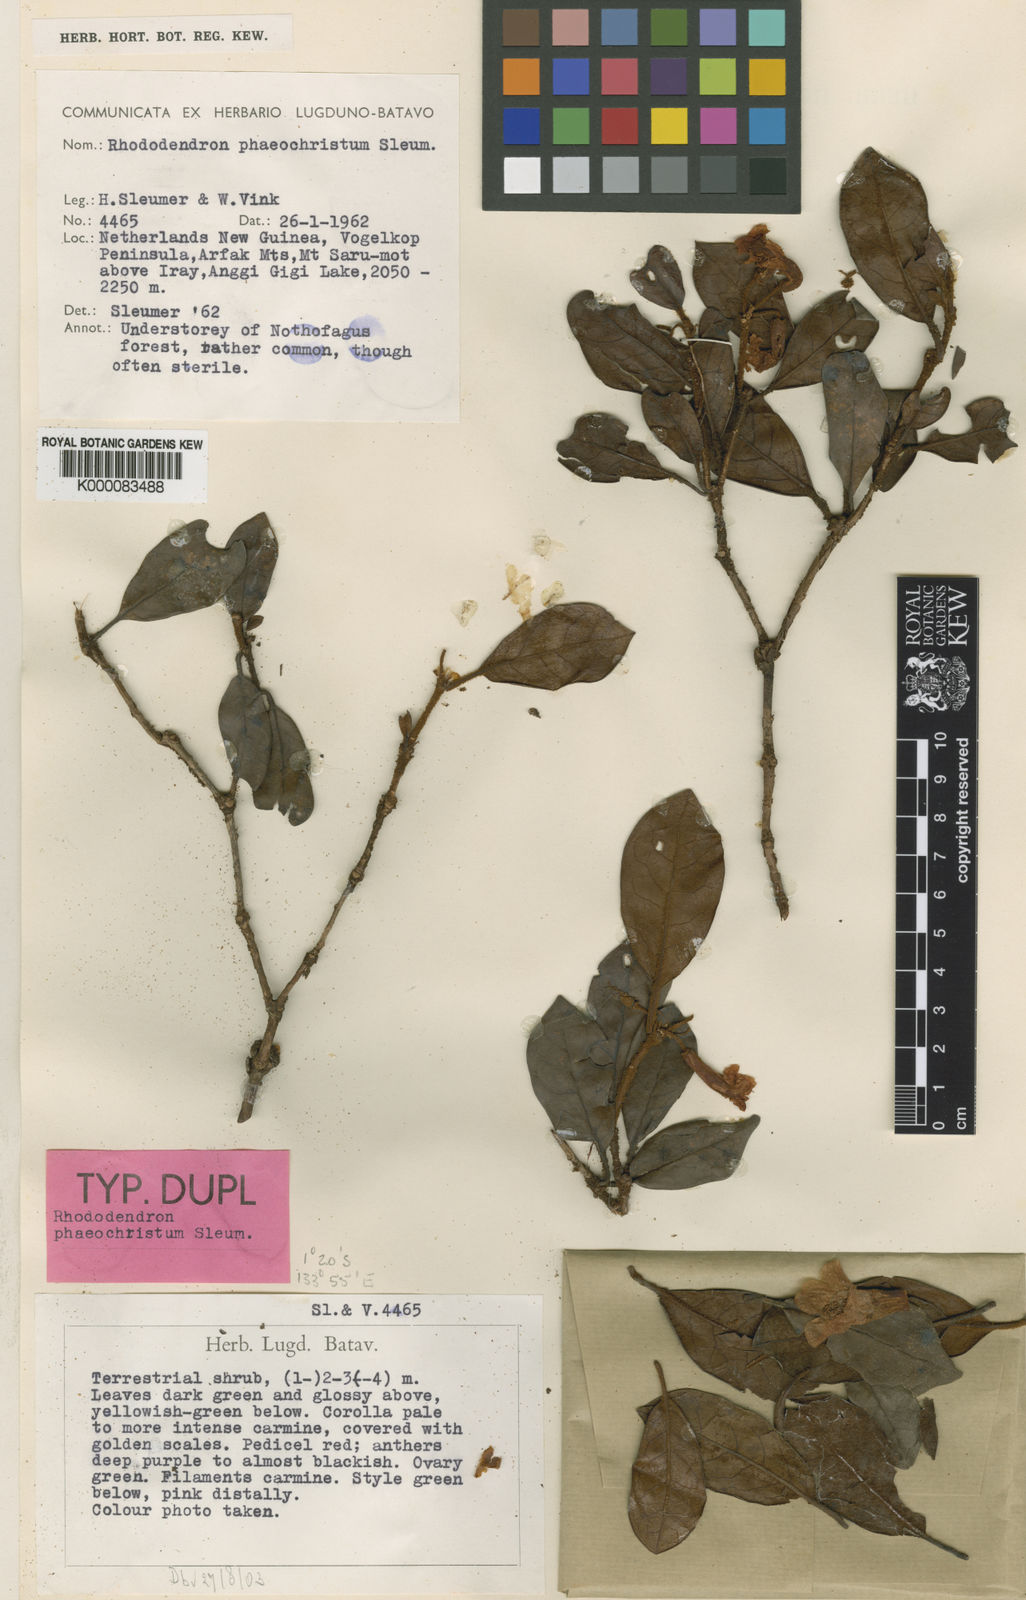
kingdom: Plantae
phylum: Tracheophyta
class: Magnoliopsida
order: Ericales
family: Ericaceae
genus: Rhododendron
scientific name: Rhododendron phaeochristum
